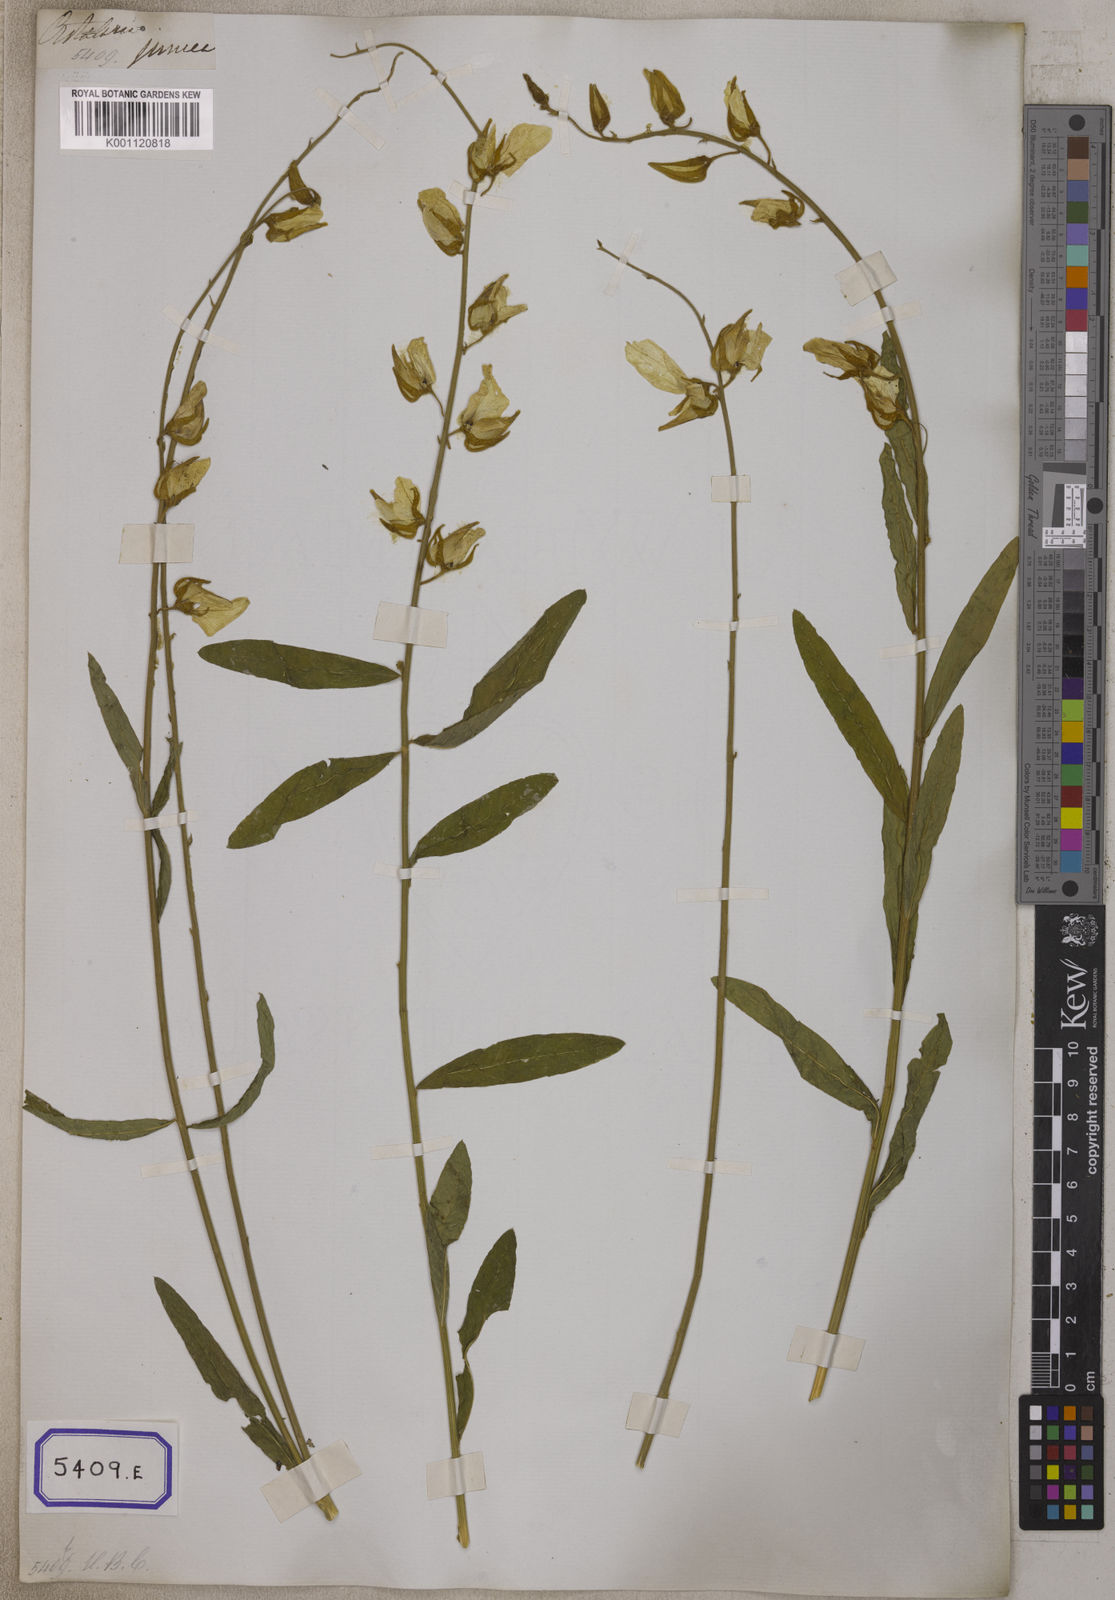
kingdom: Plantae
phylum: Tracheophyta
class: Magnoliopsida
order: Fabales
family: Fabaceae
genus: Crotalaria
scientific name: Crotalaria juncea
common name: Sunn hemp
